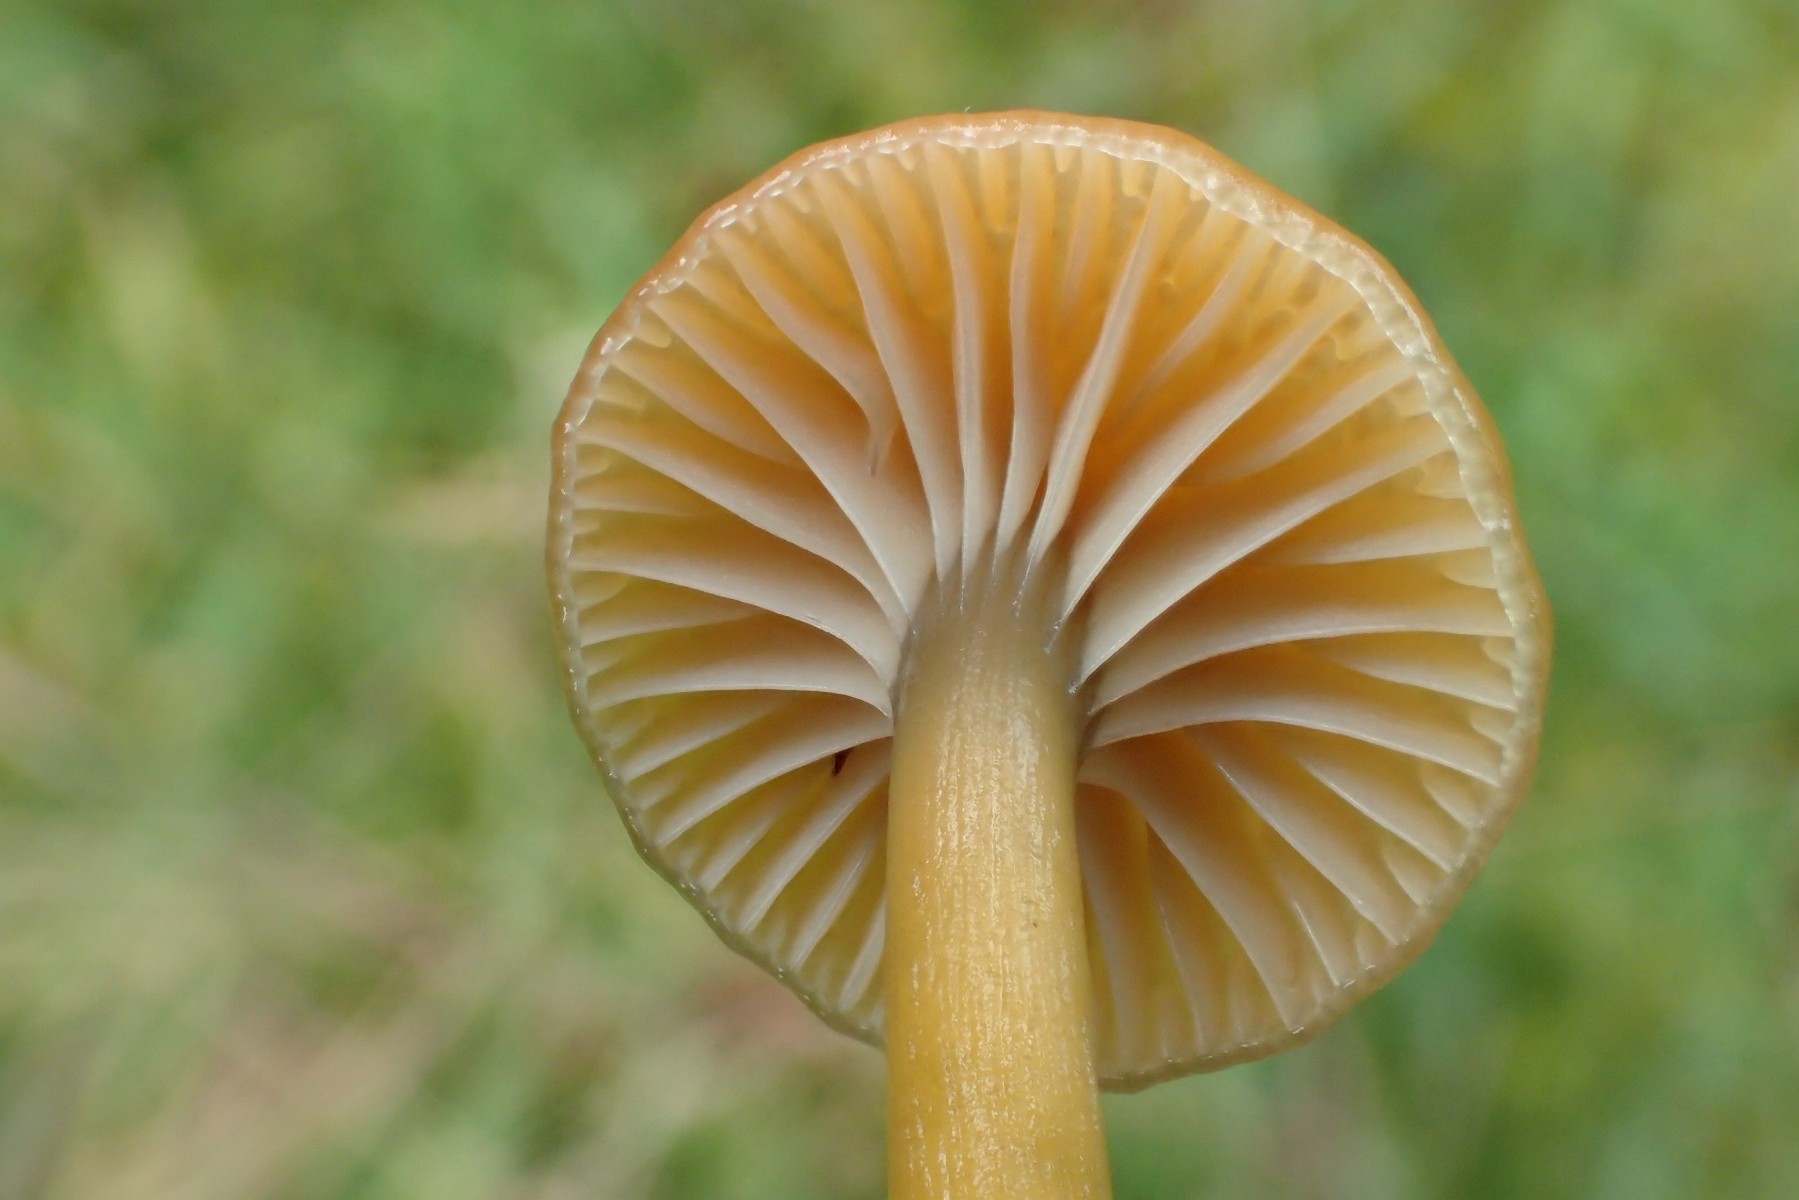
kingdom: Fungi
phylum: Basidiomycota
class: Agaricomycetes
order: Agaricales
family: Hygrophoraceae
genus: Gliophorus
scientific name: Gliophorus laetus
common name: brusk-vokshat
